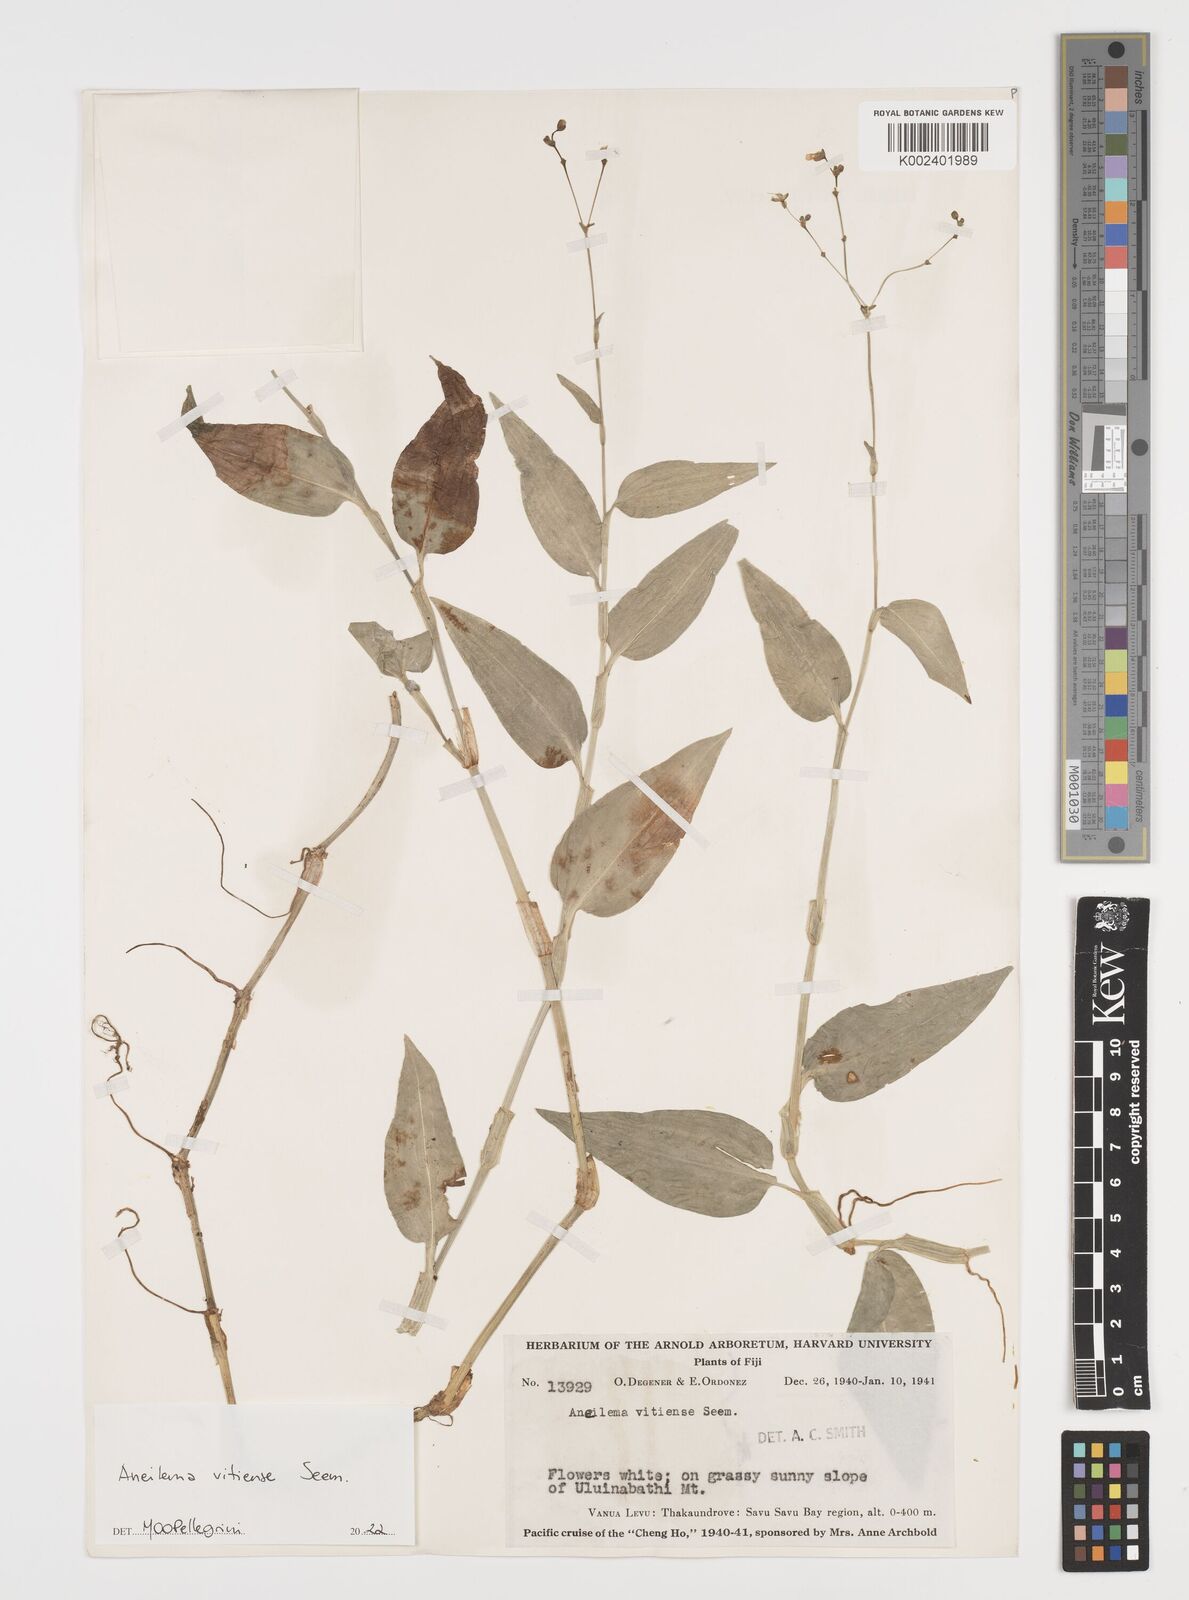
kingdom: Plantae
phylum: Tracheophyta
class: Liliopsida
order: Commelinales
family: Commelinaceae
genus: Rhopalephora
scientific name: Rhopalephora vitiensis
